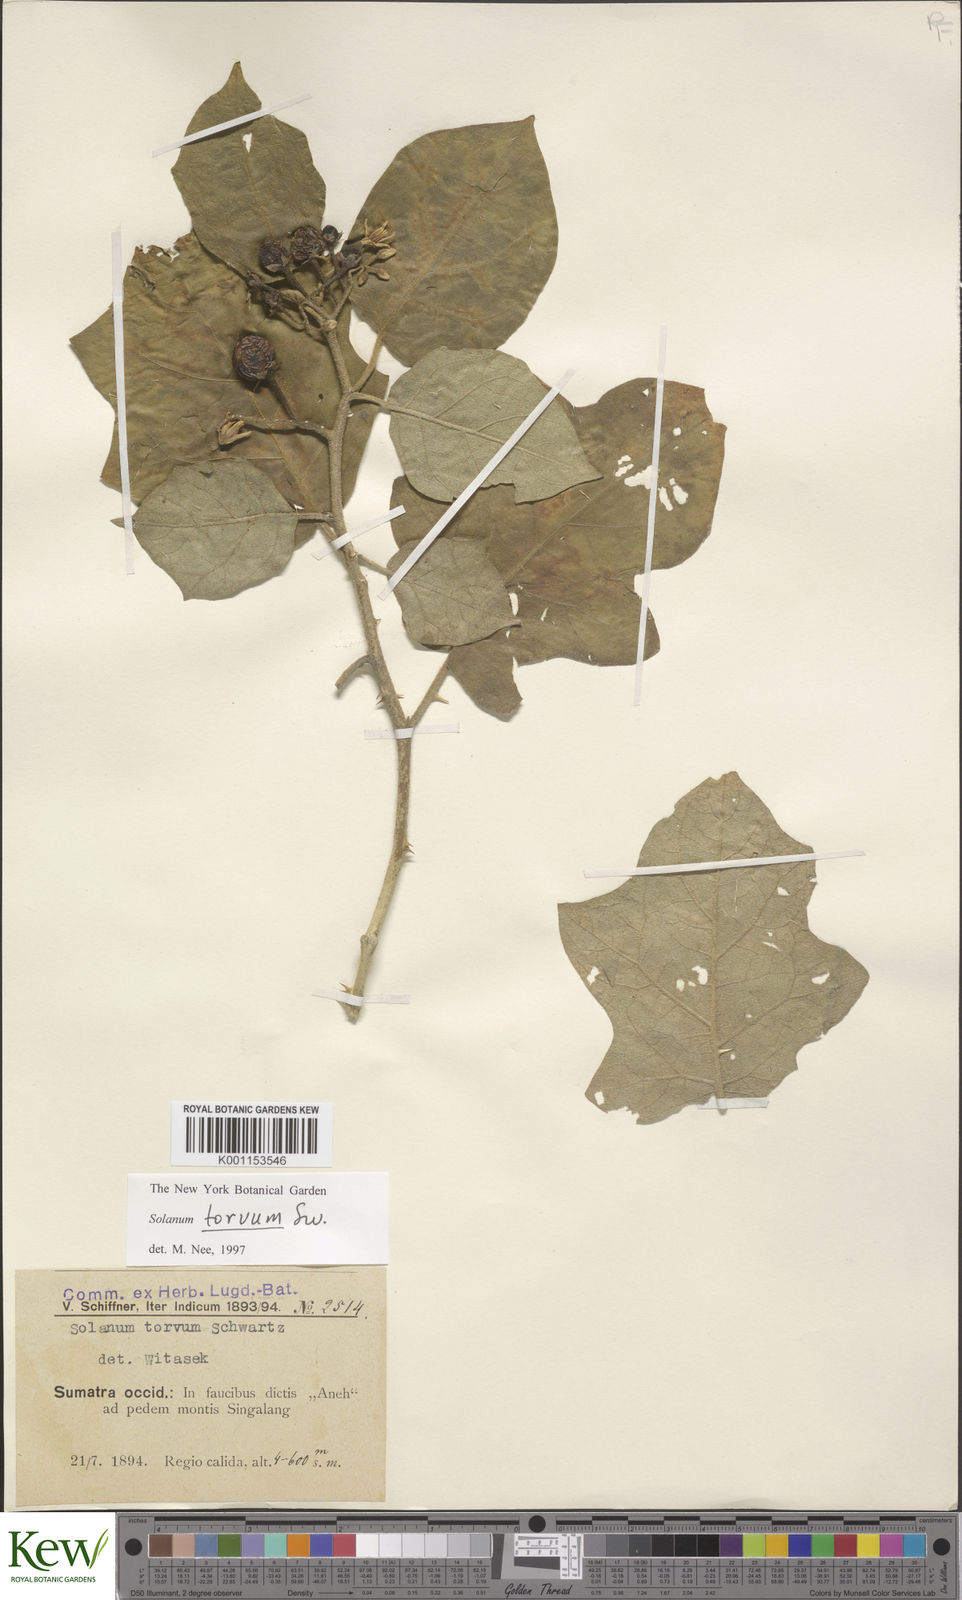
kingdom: Plantae
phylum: Tracheophyta
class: Magnoliopsida
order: Solanales
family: Solanaceae
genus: Solanum
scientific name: Solanum torvum
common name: Turkey berry
